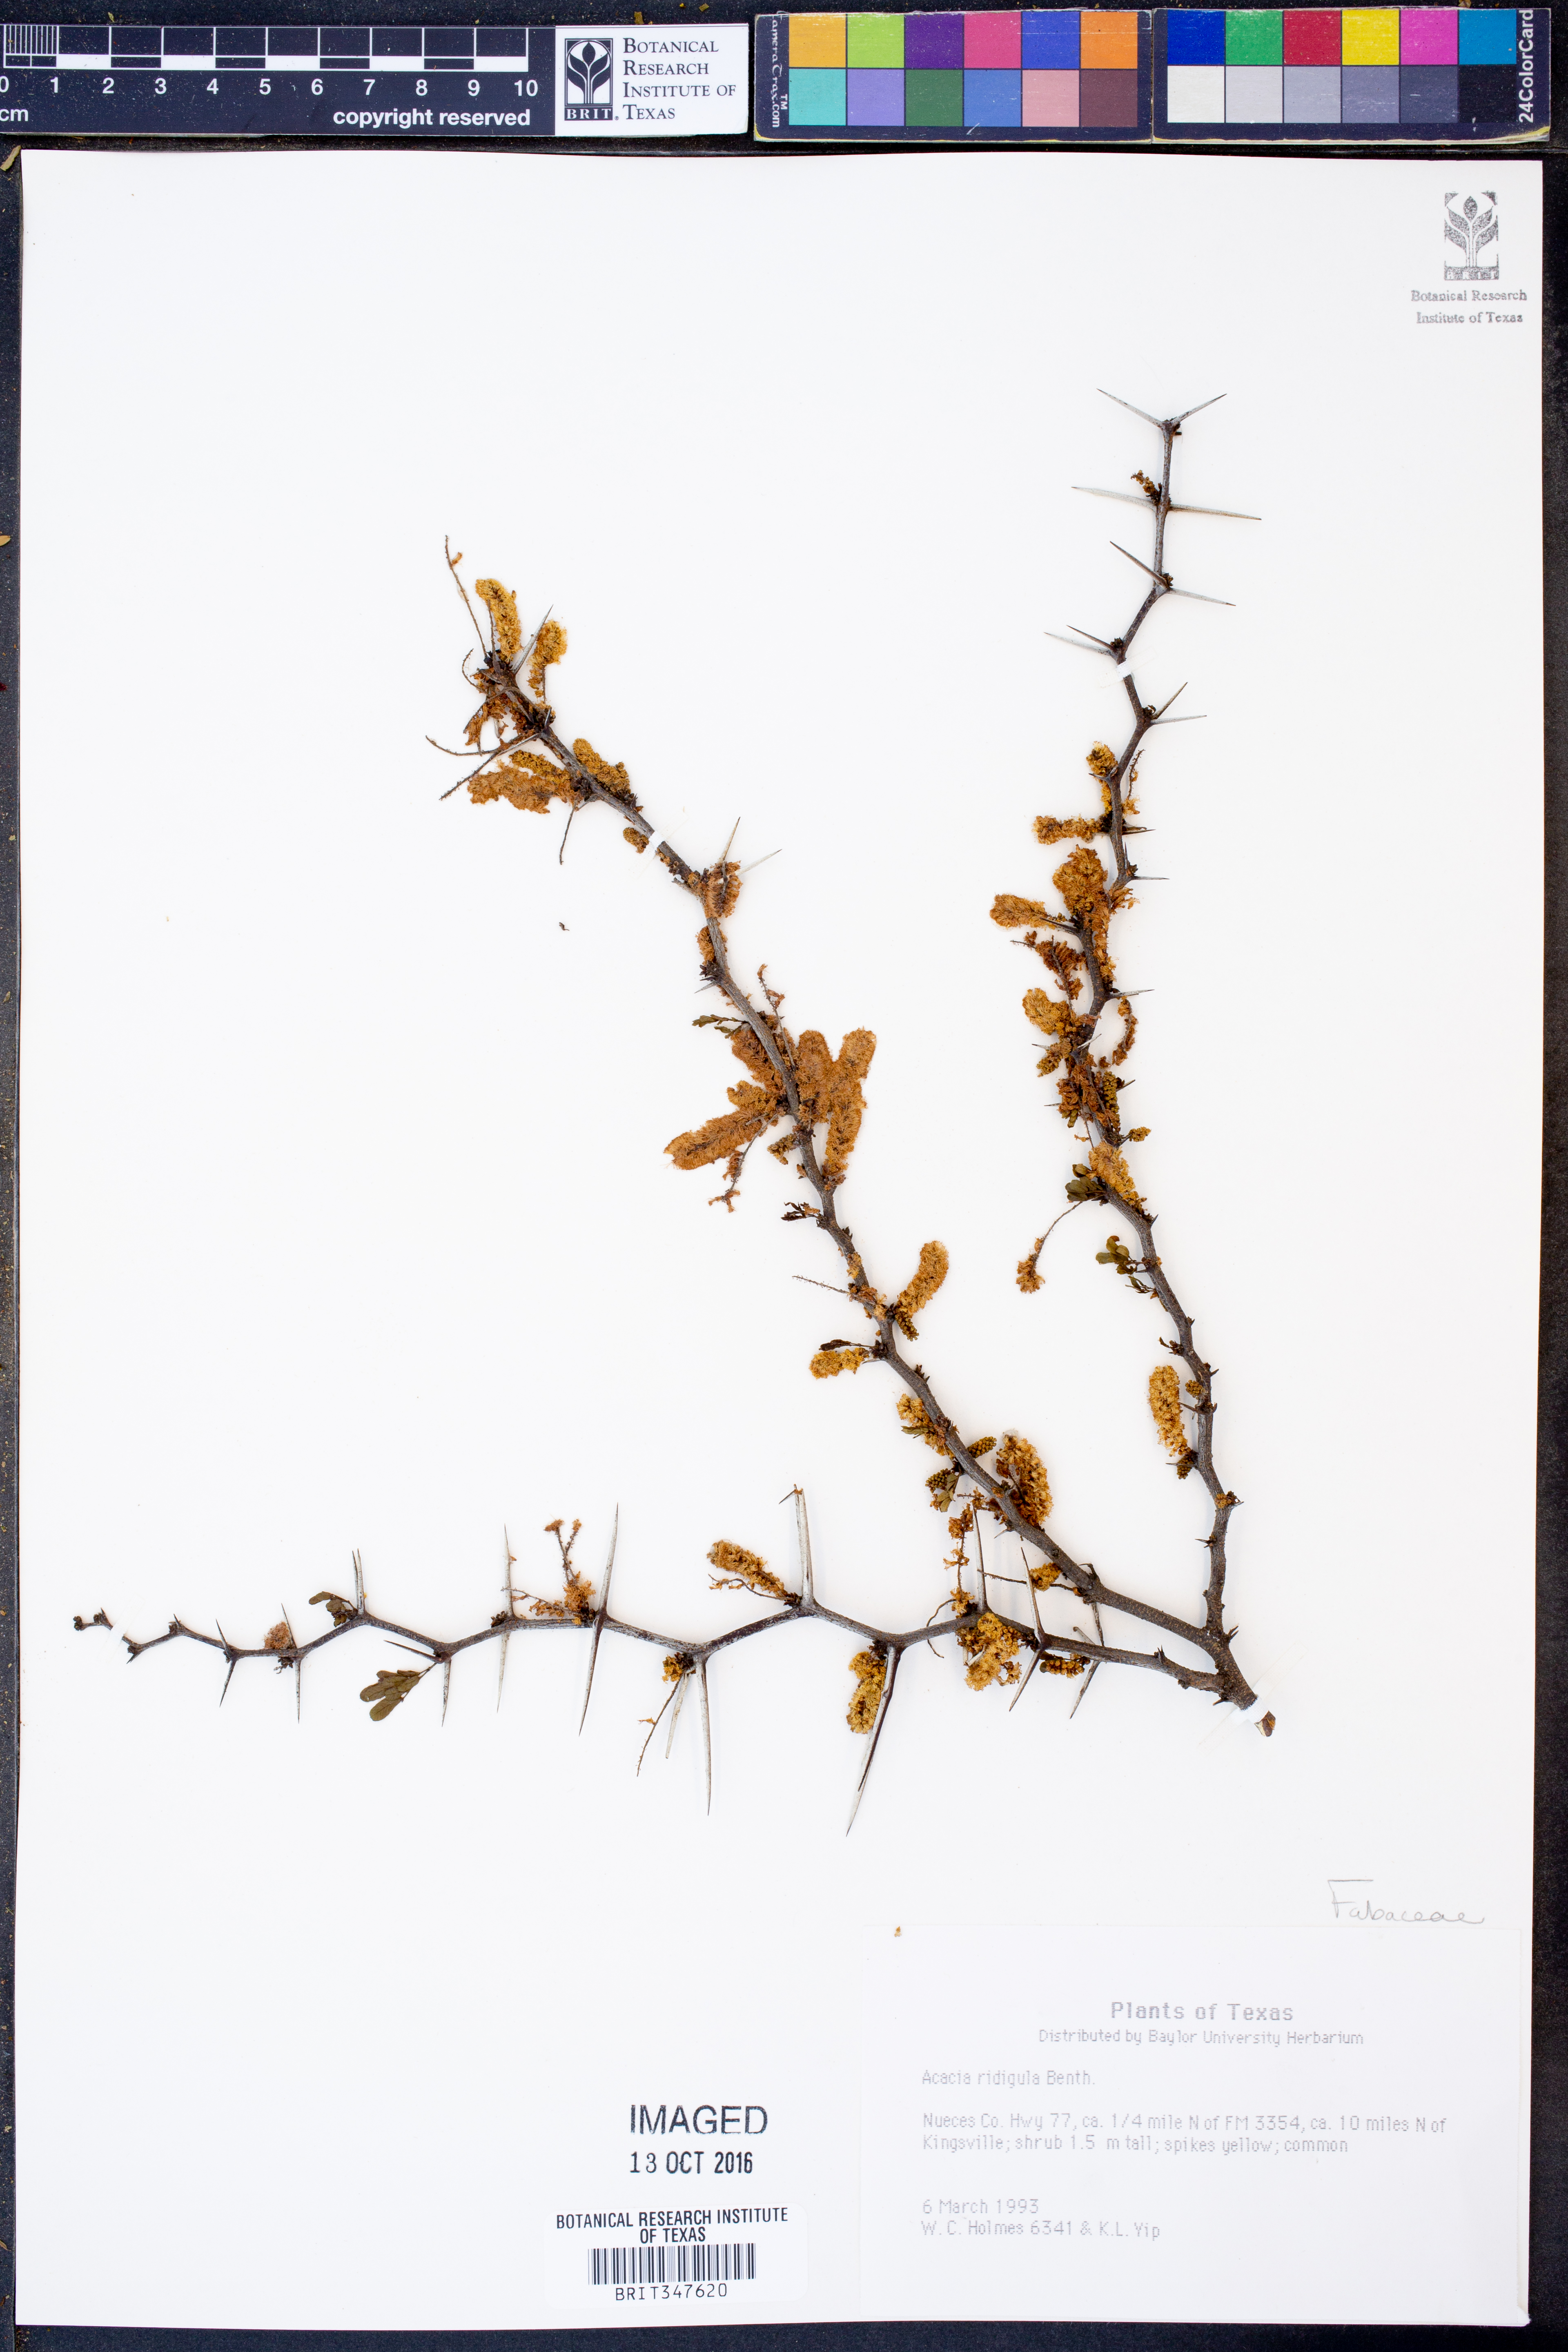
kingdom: Plantae
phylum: Tracheophyta
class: Magnoliopsida
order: Fabales
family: Fabaceae
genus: Vachellia
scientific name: Vachellia rigidula
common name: Blackbrush
